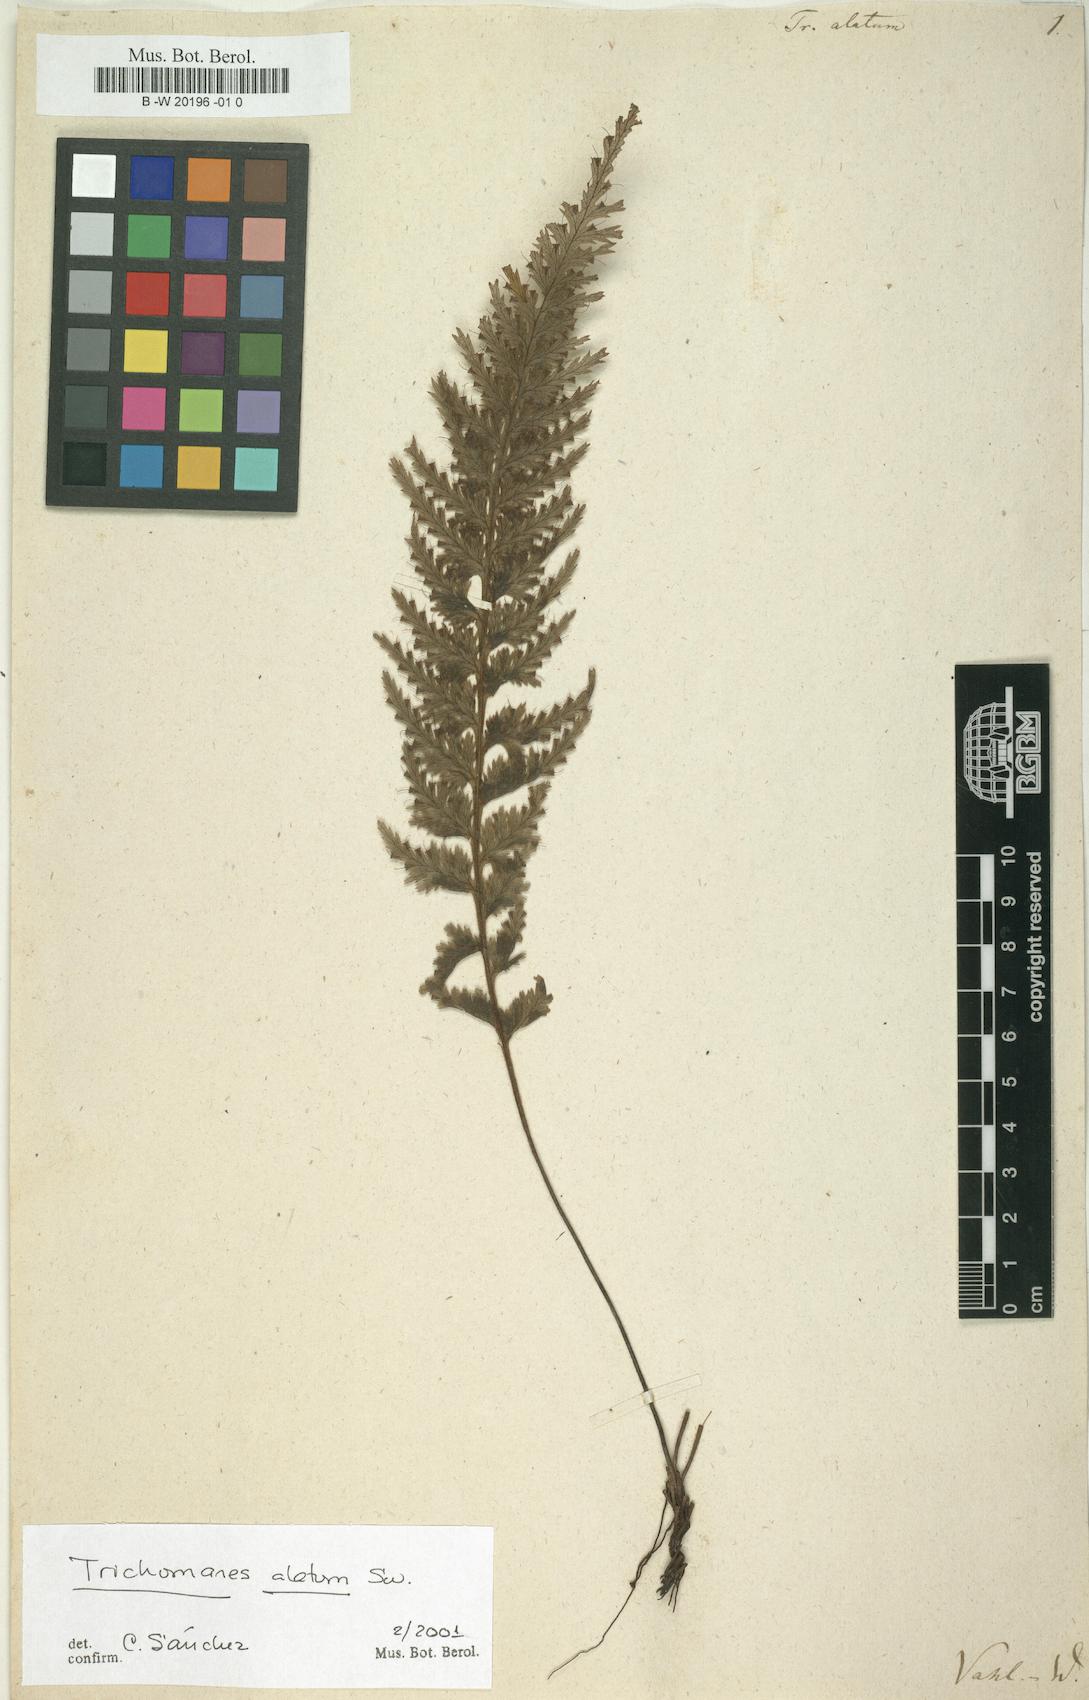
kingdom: Plantae
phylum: Tracheophyta
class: Polypodiopsida
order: Hymenophyllales
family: Hymenophyllaceae
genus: Trichomanes
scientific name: Trichomanes alatum
